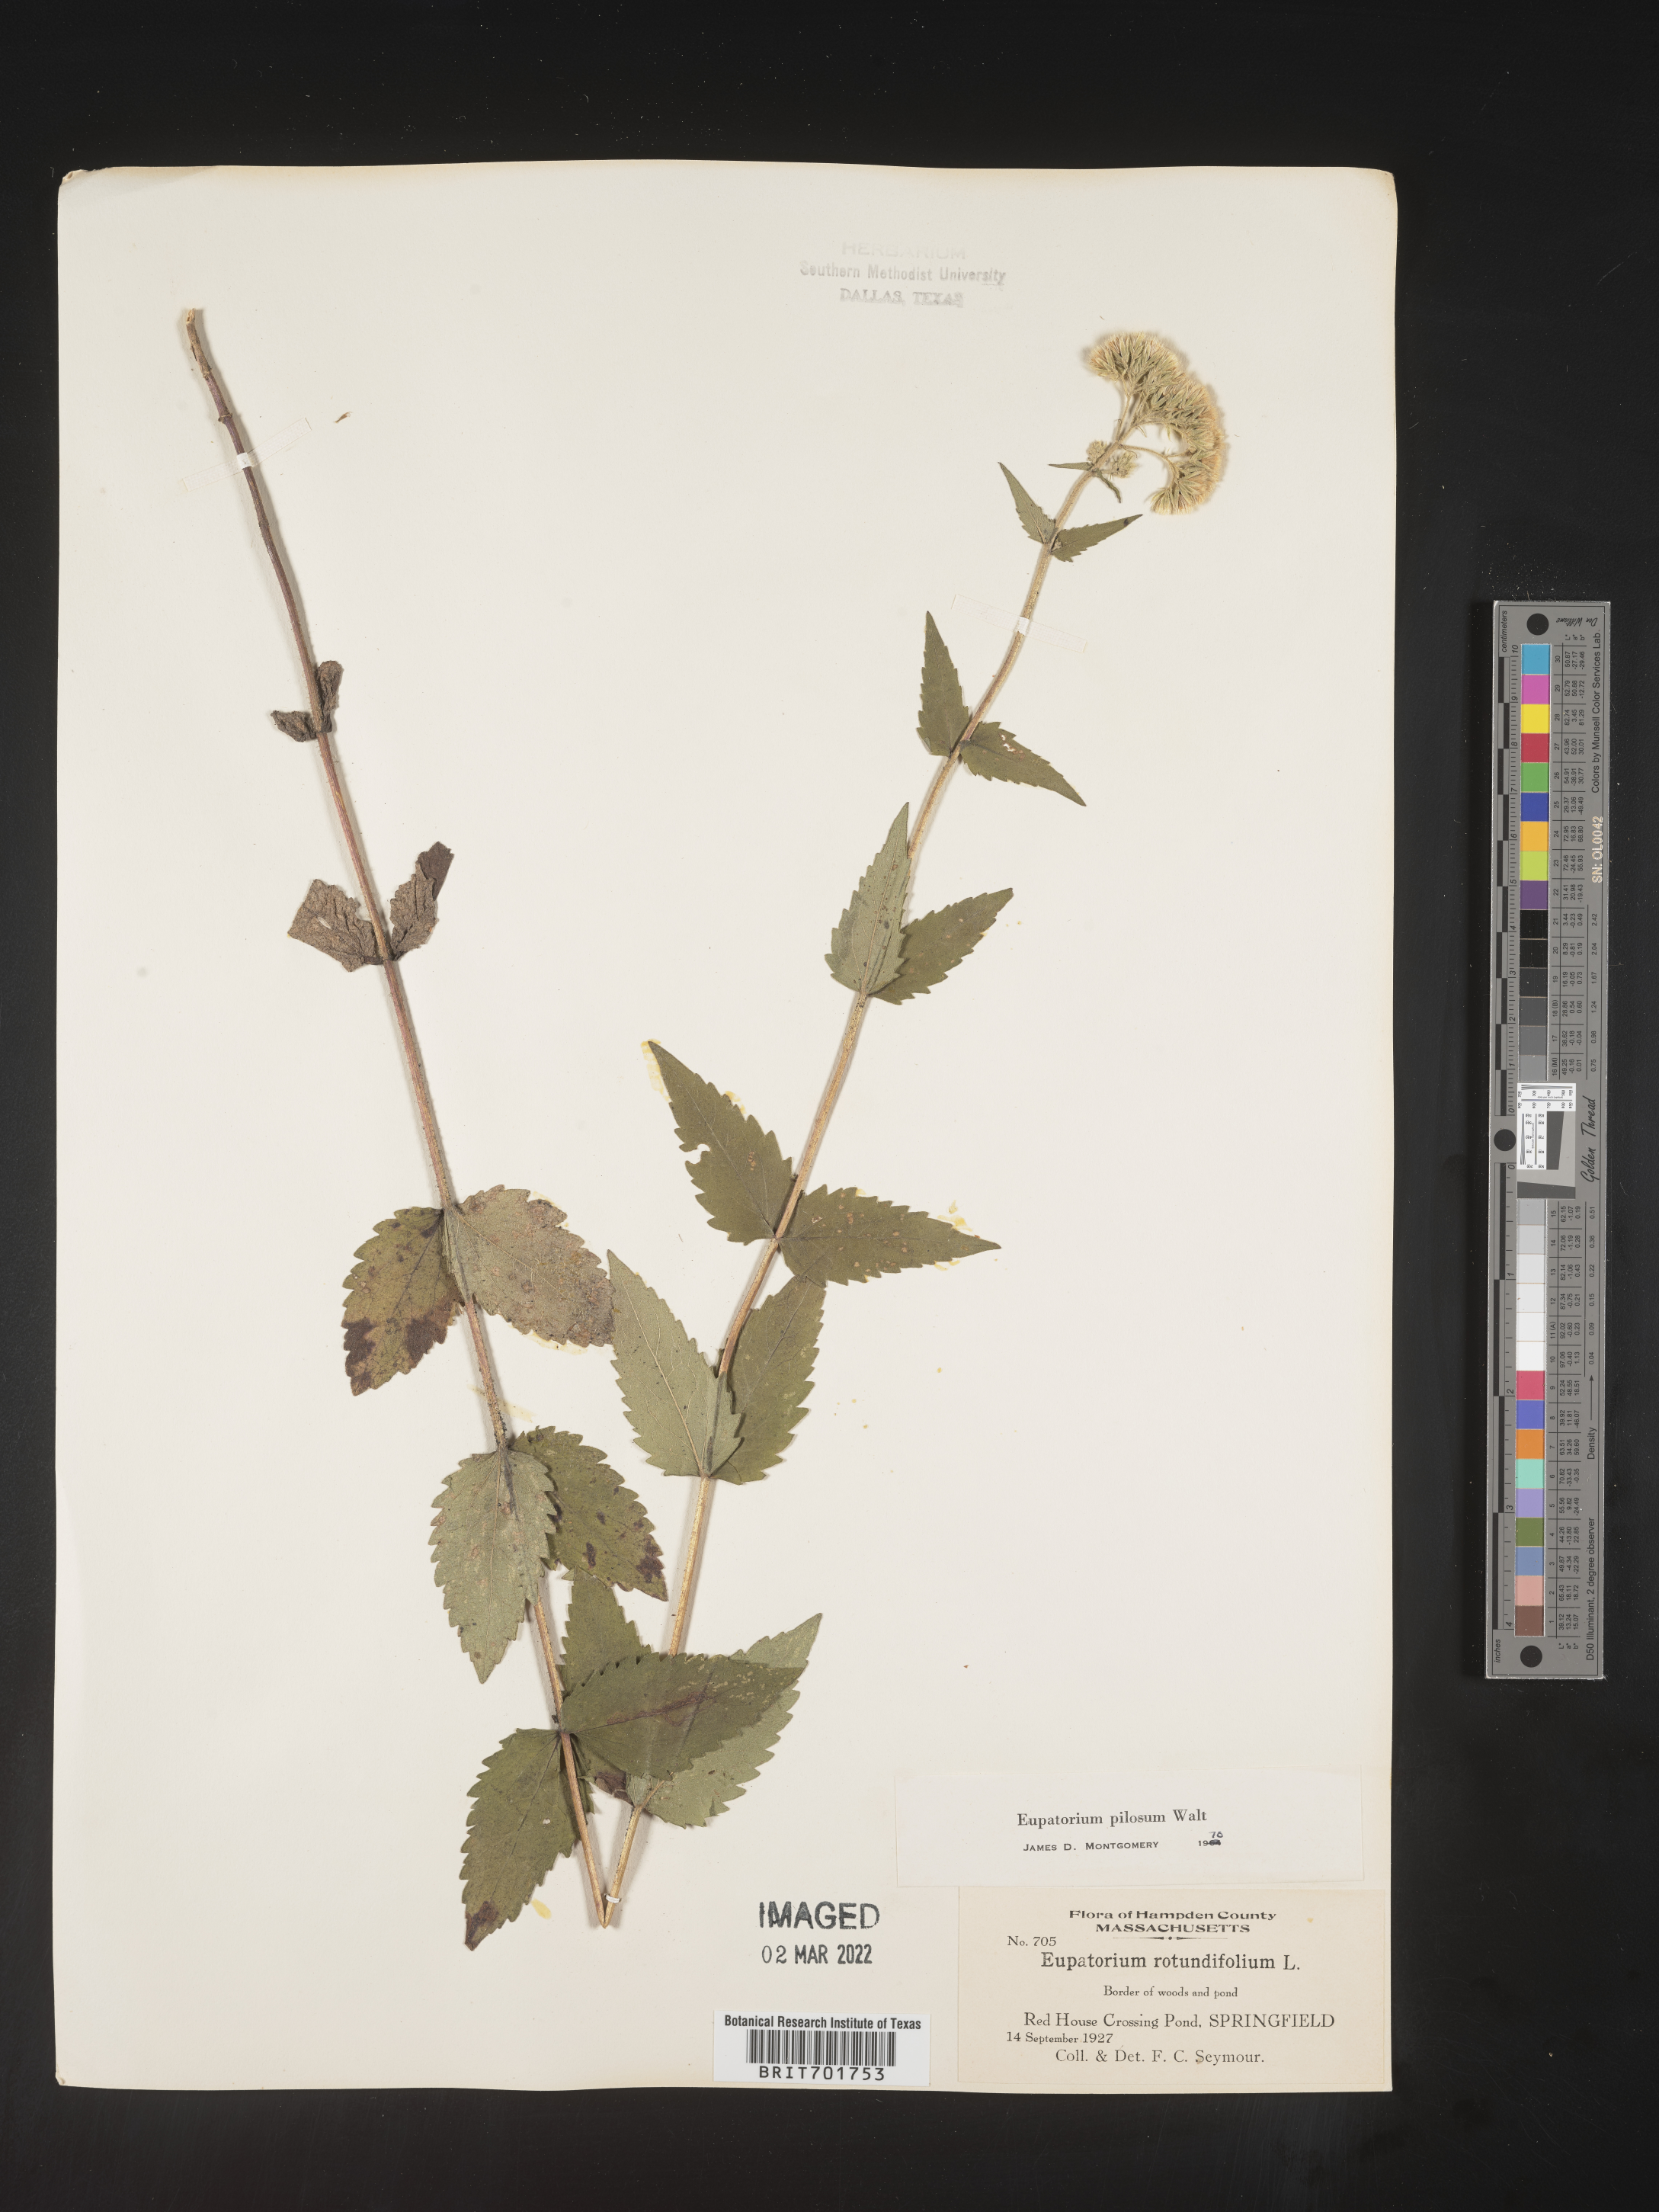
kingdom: Plantae
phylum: Tracheophyta
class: Magnoliopsida
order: Asterales
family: Asteraceae
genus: Eupatorium
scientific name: Eupatorium pilosum
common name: Rough boneset
